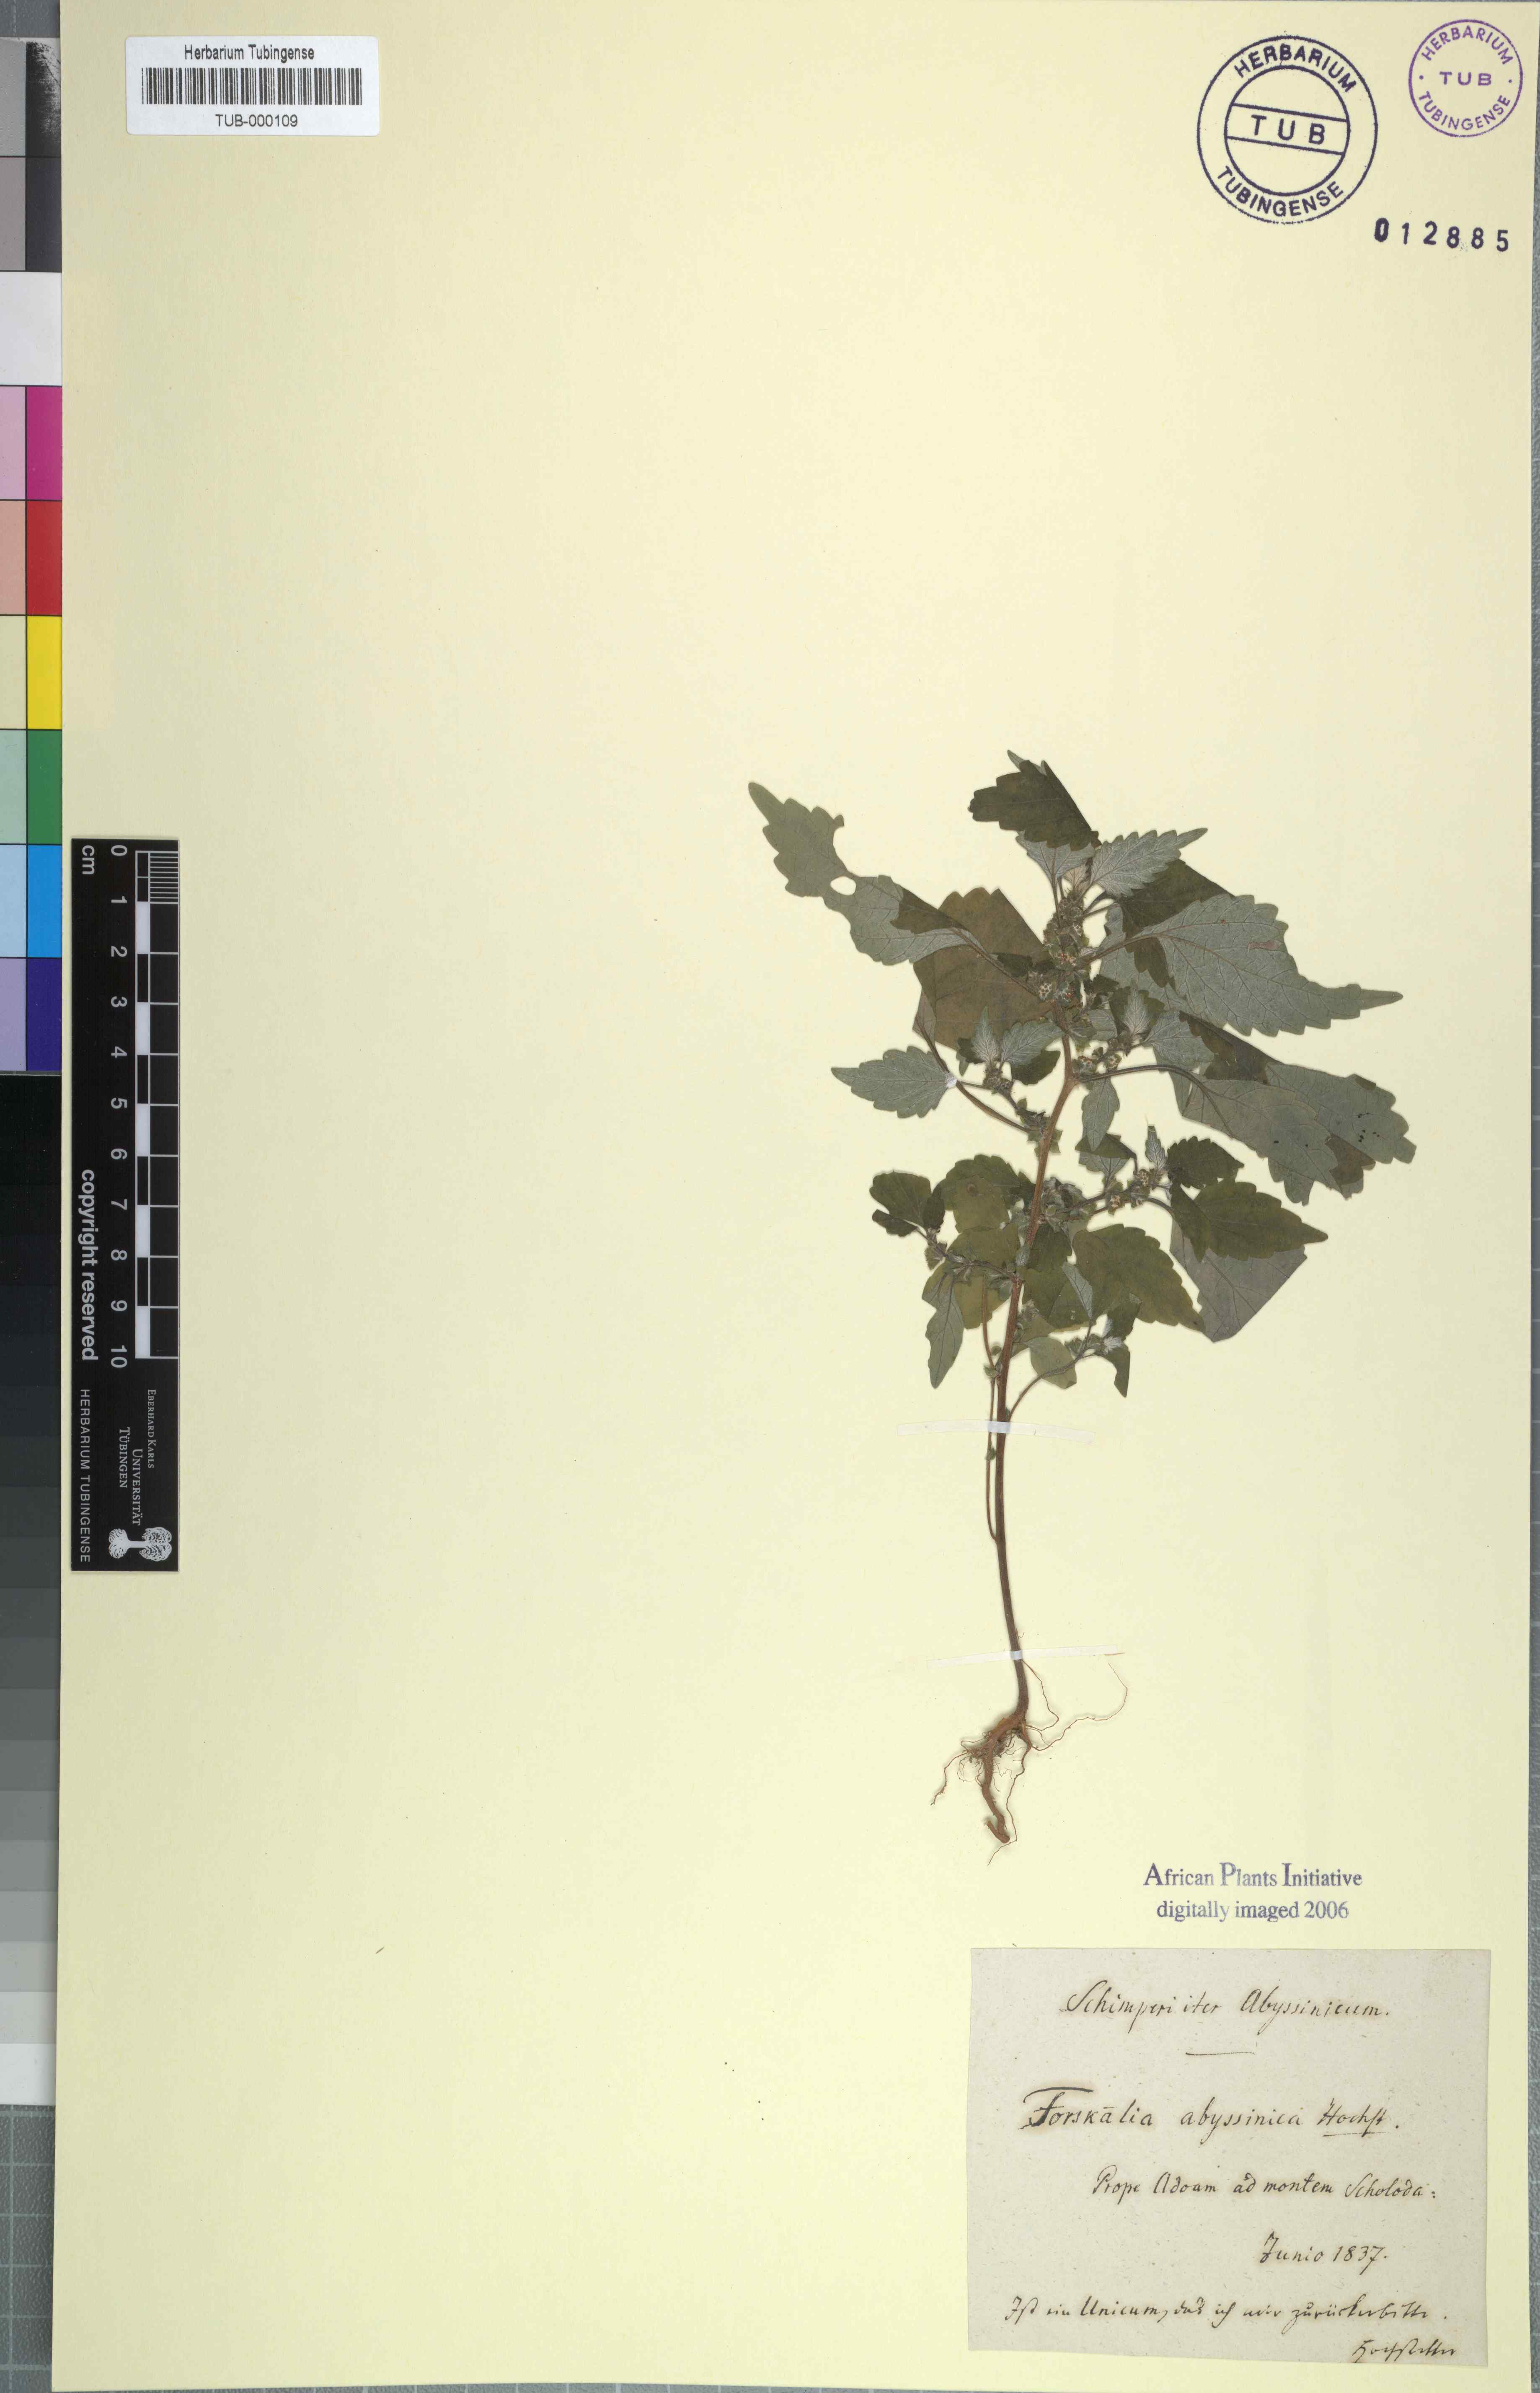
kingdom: Plantae
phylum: Tracheophyta
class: Magnoliopsida
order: Rosales
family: Urticaceae
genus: Forsskaolea
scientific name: Forsskaolea
